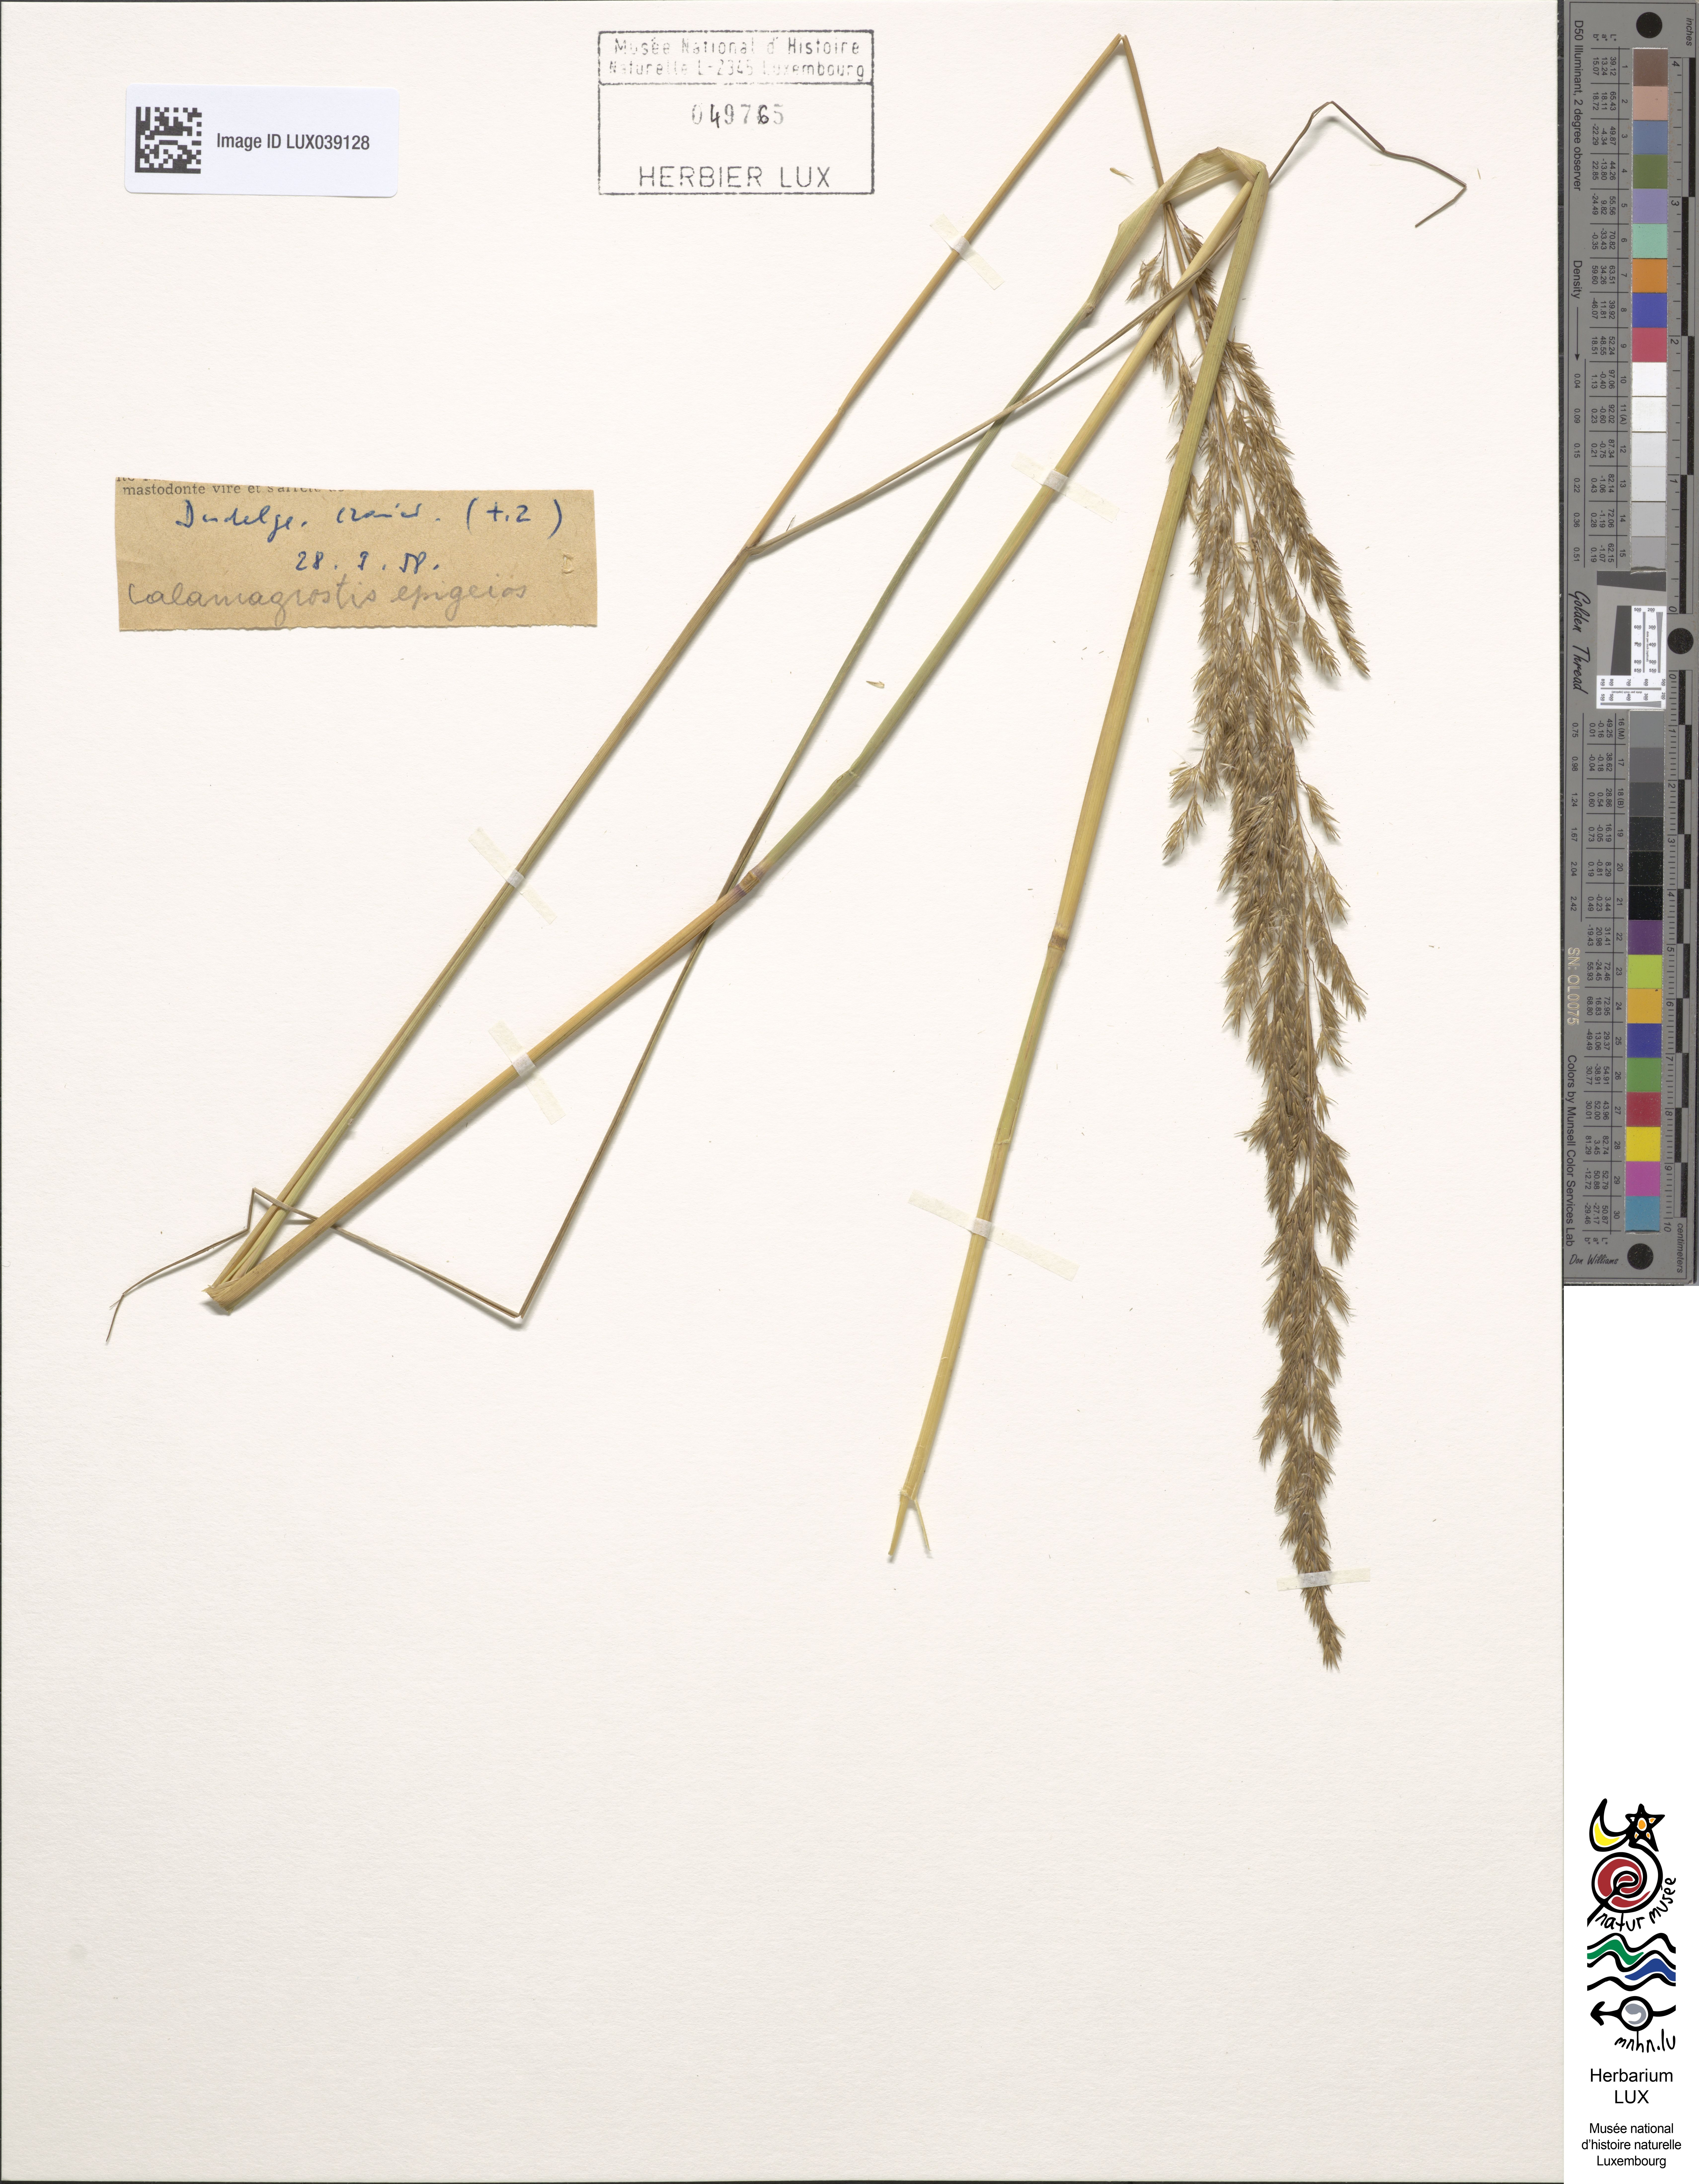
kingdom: Plantae
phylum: Tracheophyta
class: Liliopsida
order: Poales
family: Poaceae
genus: Calamagrostis
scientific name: Calamagrostis epigejos
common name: Wood small-reed
